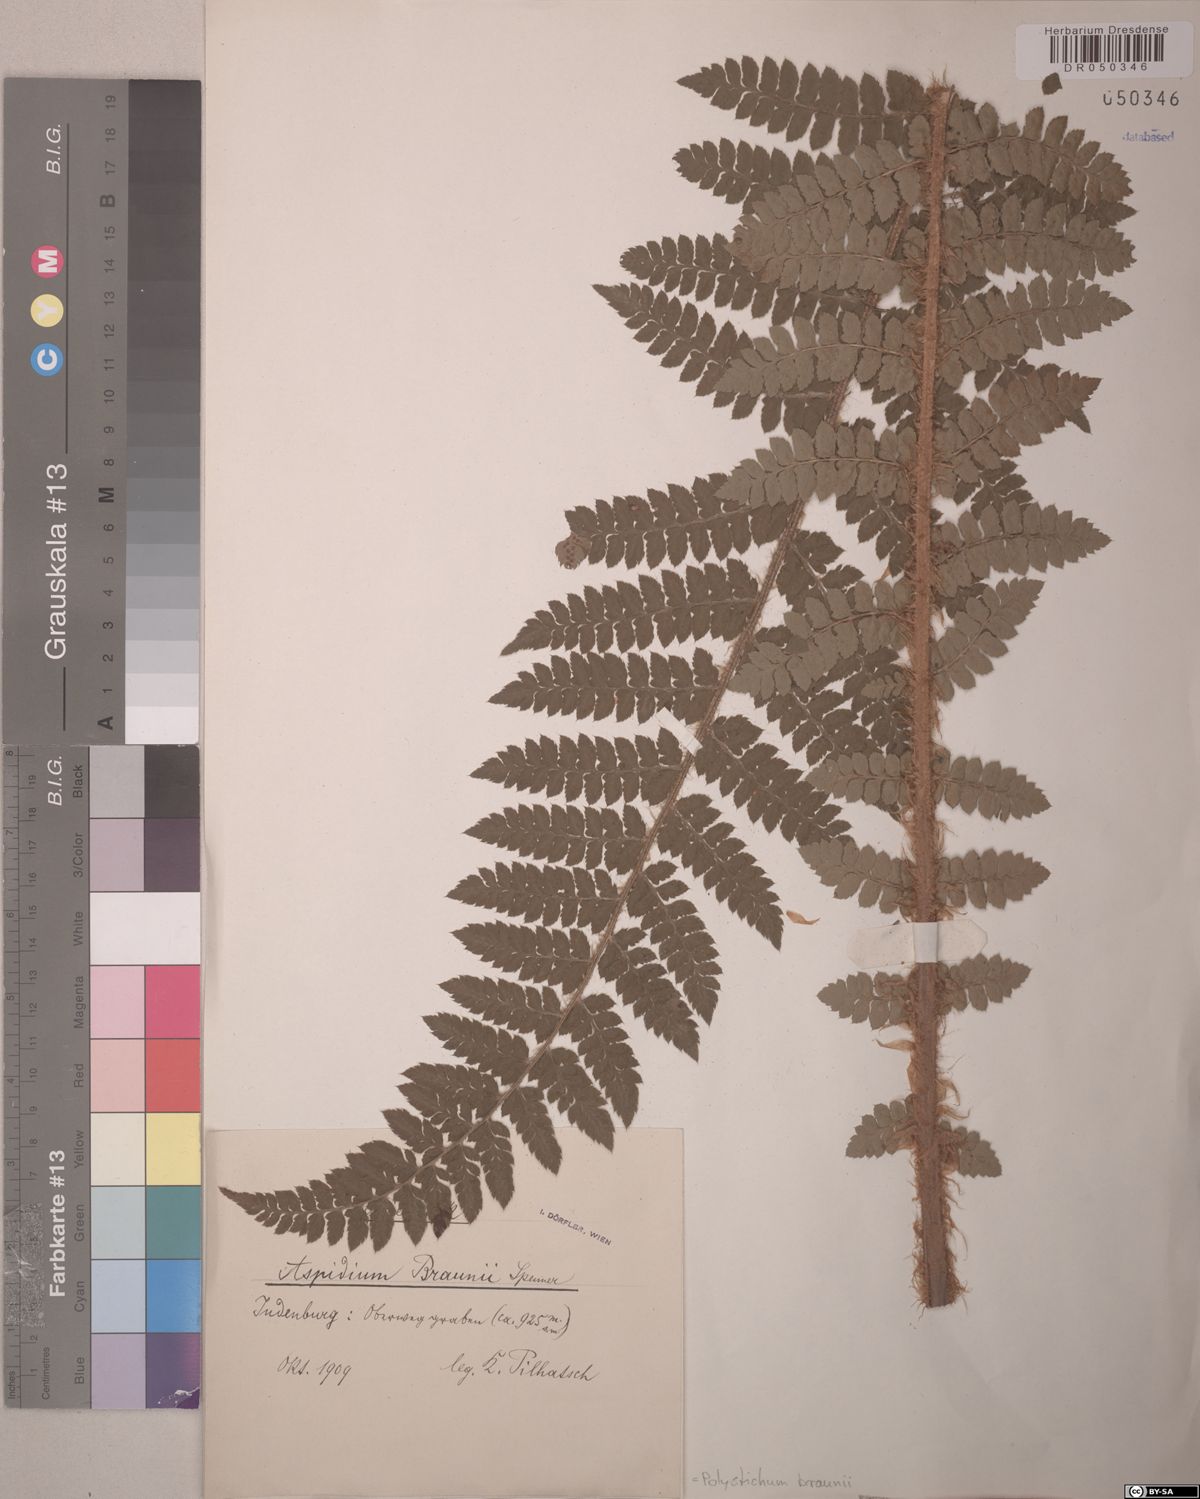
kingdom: Plantae
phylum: Tracheophyta
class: Polypodiopsida
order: Polypodiales
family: Dryopteridaceae
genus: Polystichum
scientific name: Polystichum braunii
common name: Braun's holly fern
